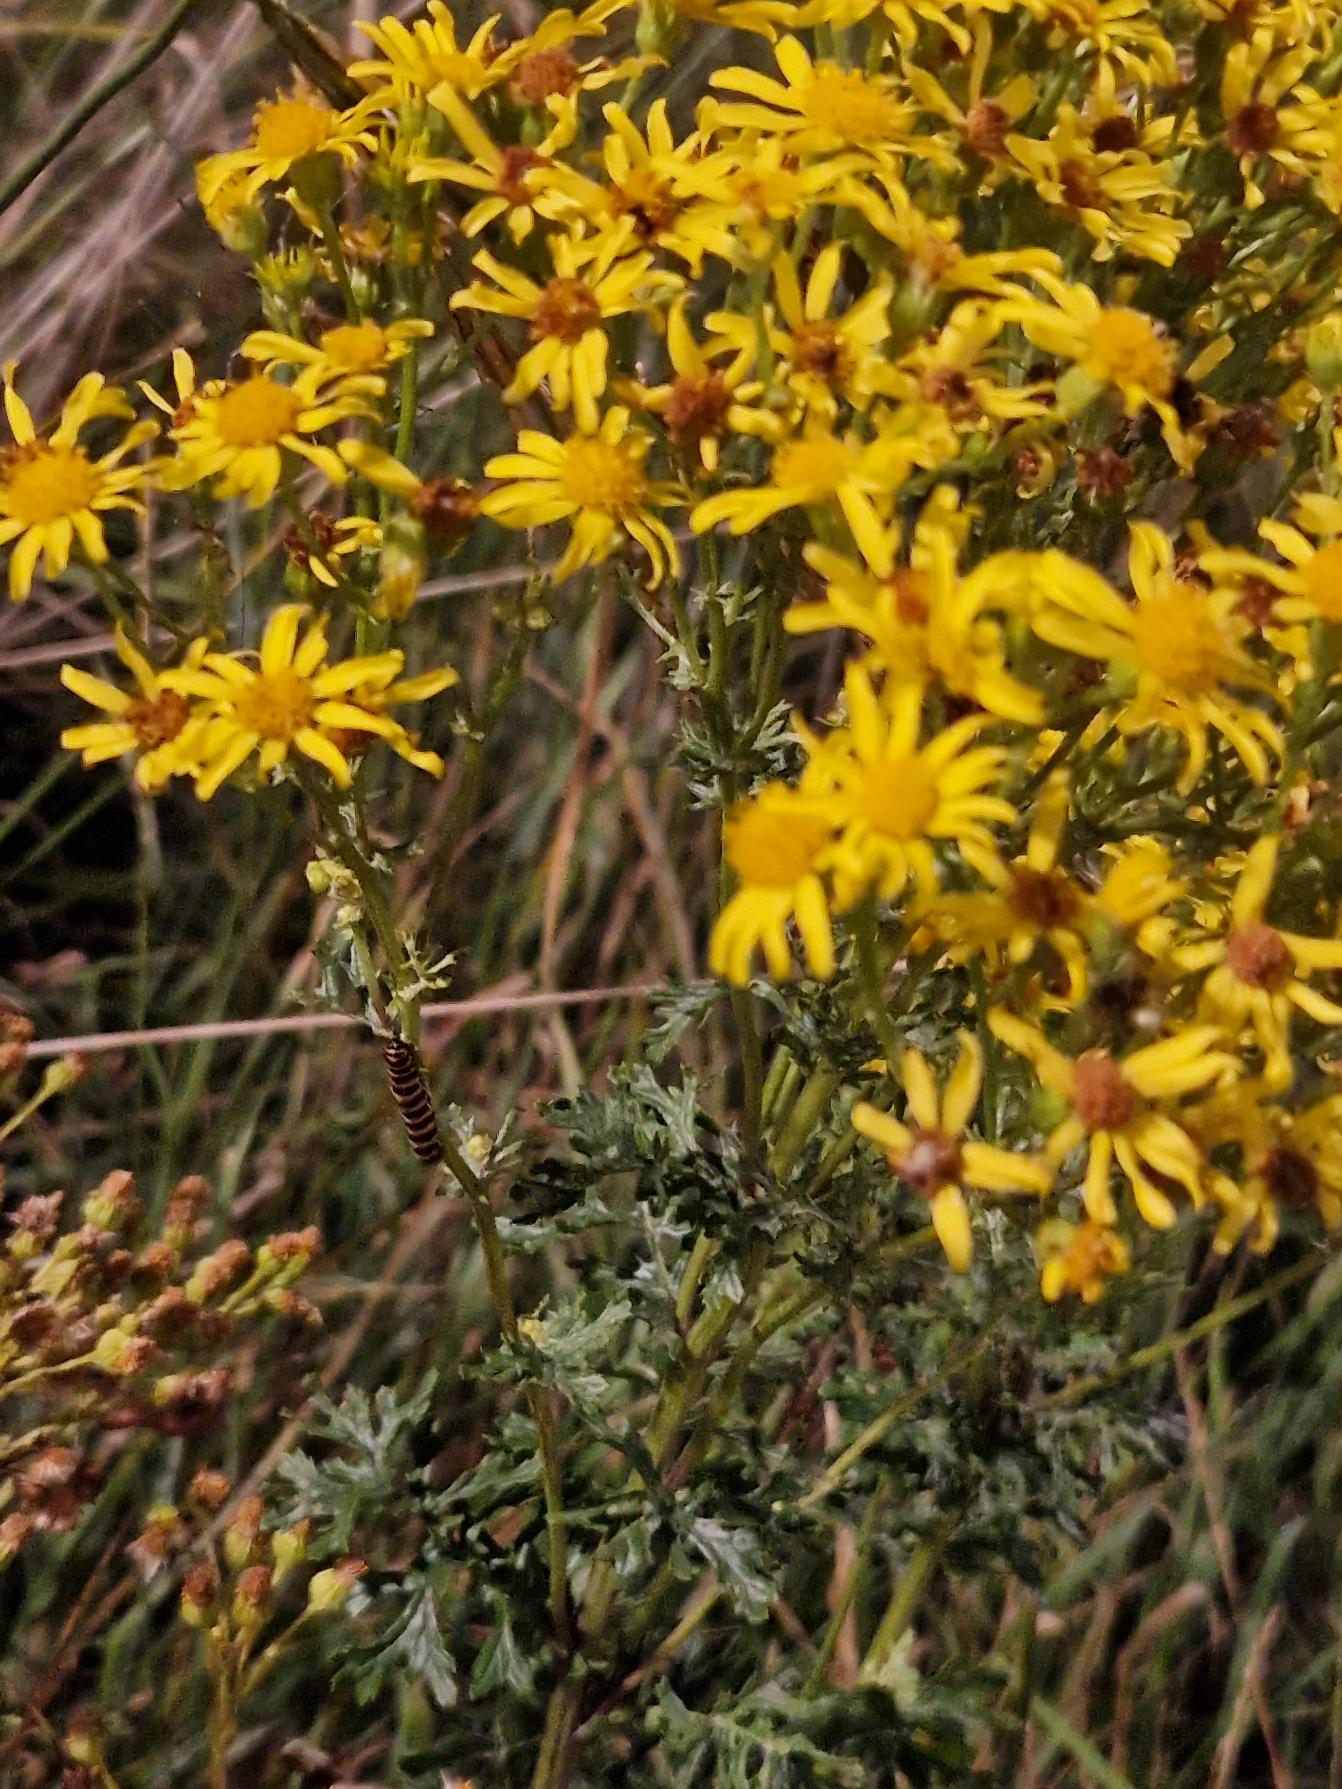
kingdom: Animalia
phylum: Arthropoda
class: Insecta
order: Lepidoptera
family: Erebidae
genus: Tyria
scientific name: Tyria jacobaeae
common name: Blodplet
